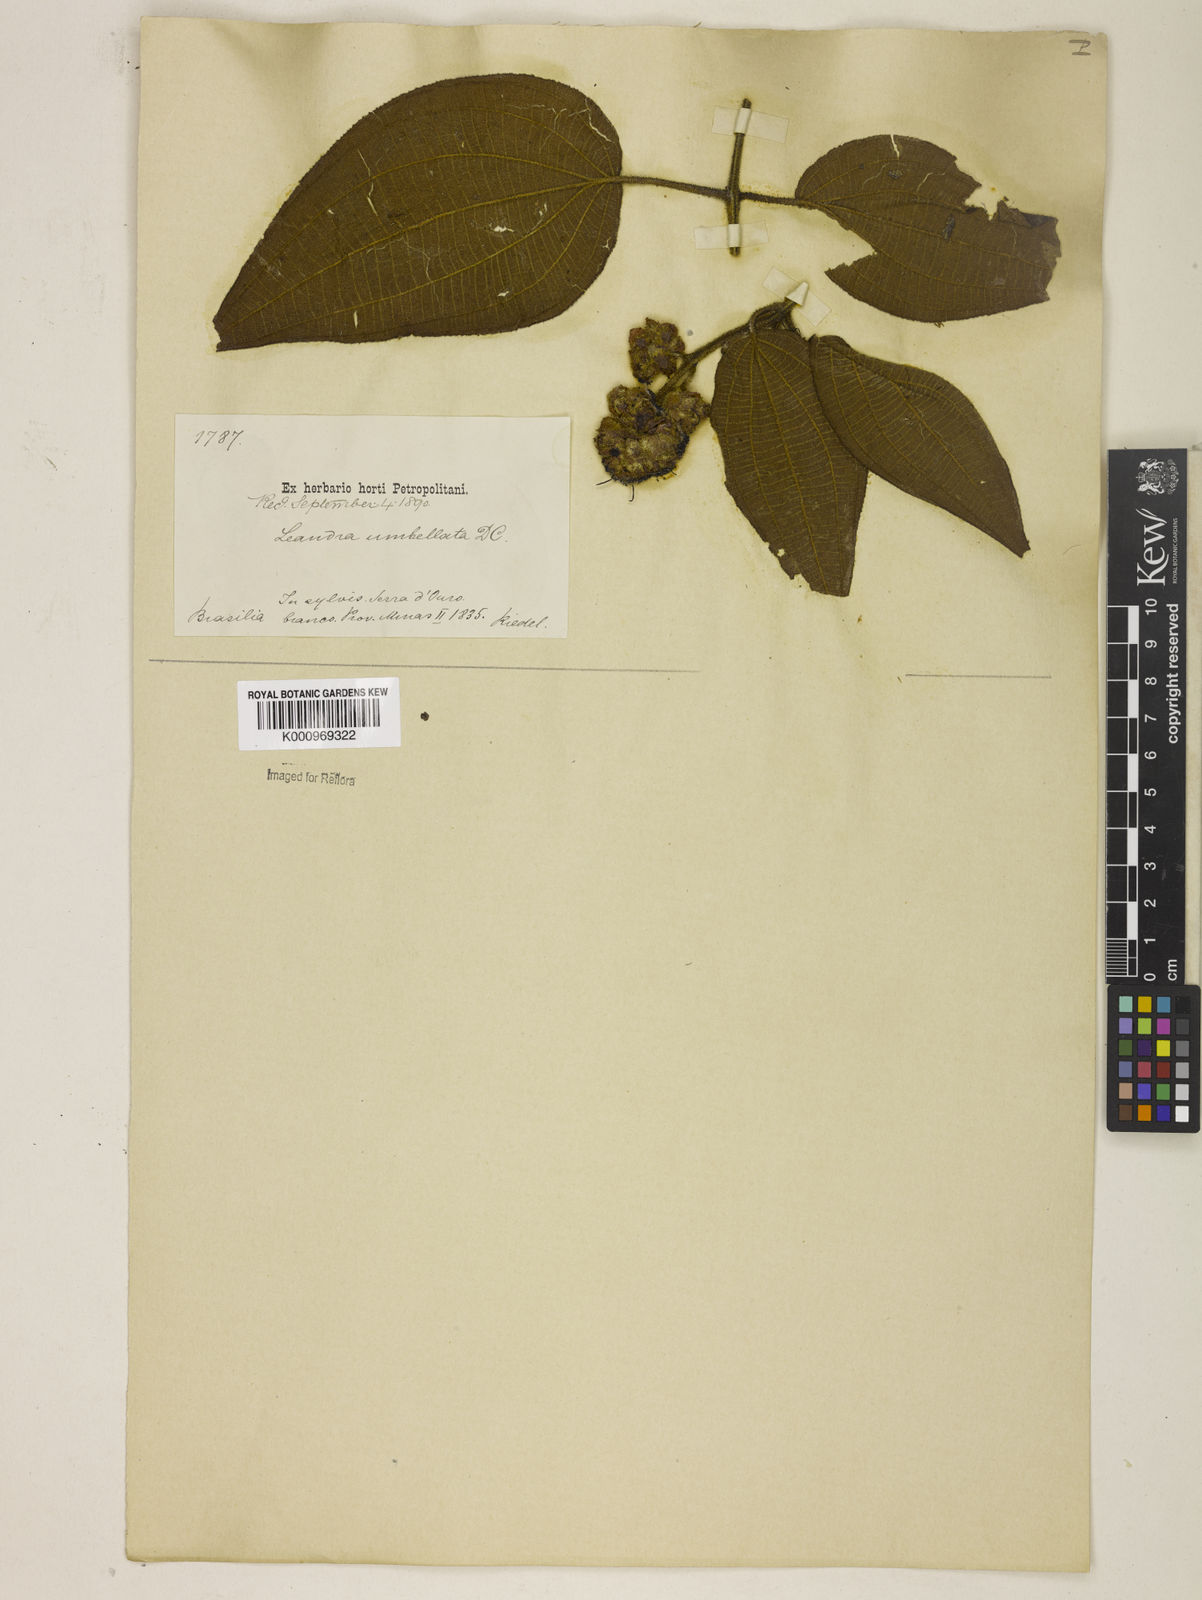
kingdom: Plantae
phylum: Tracheophyta
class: Magnoliopsida
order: Myrtales
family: Melastomataceae
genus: Miconia
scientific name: Miconia leaumbellata
